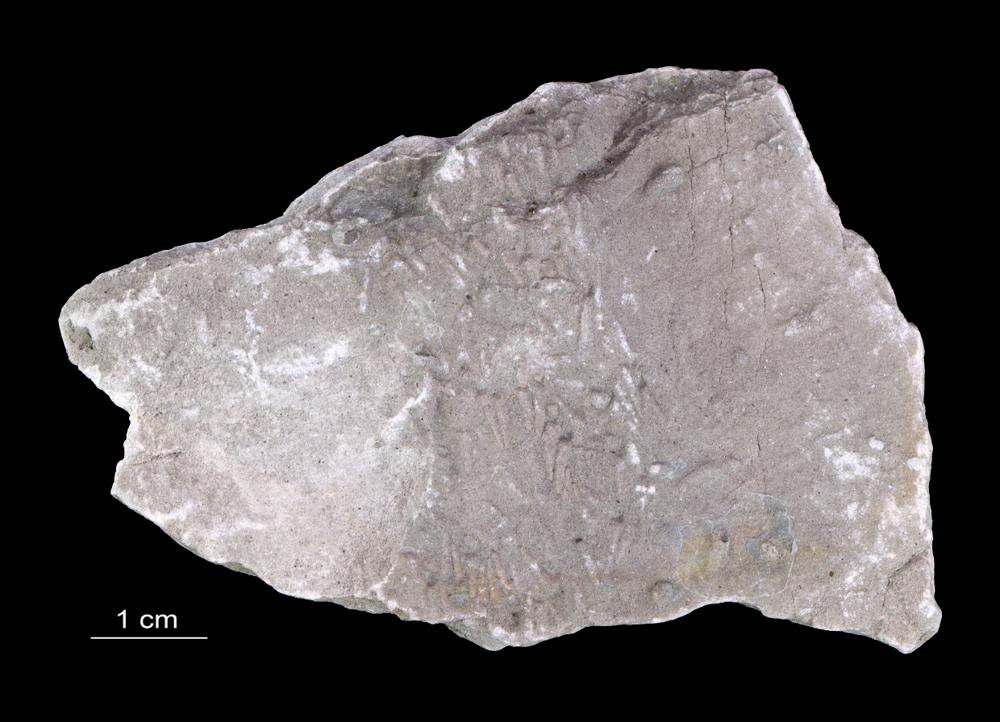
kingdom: Animalia
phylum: Annelida
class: Polychaeta
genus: Volborthella
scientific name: Volborthella tenuis
